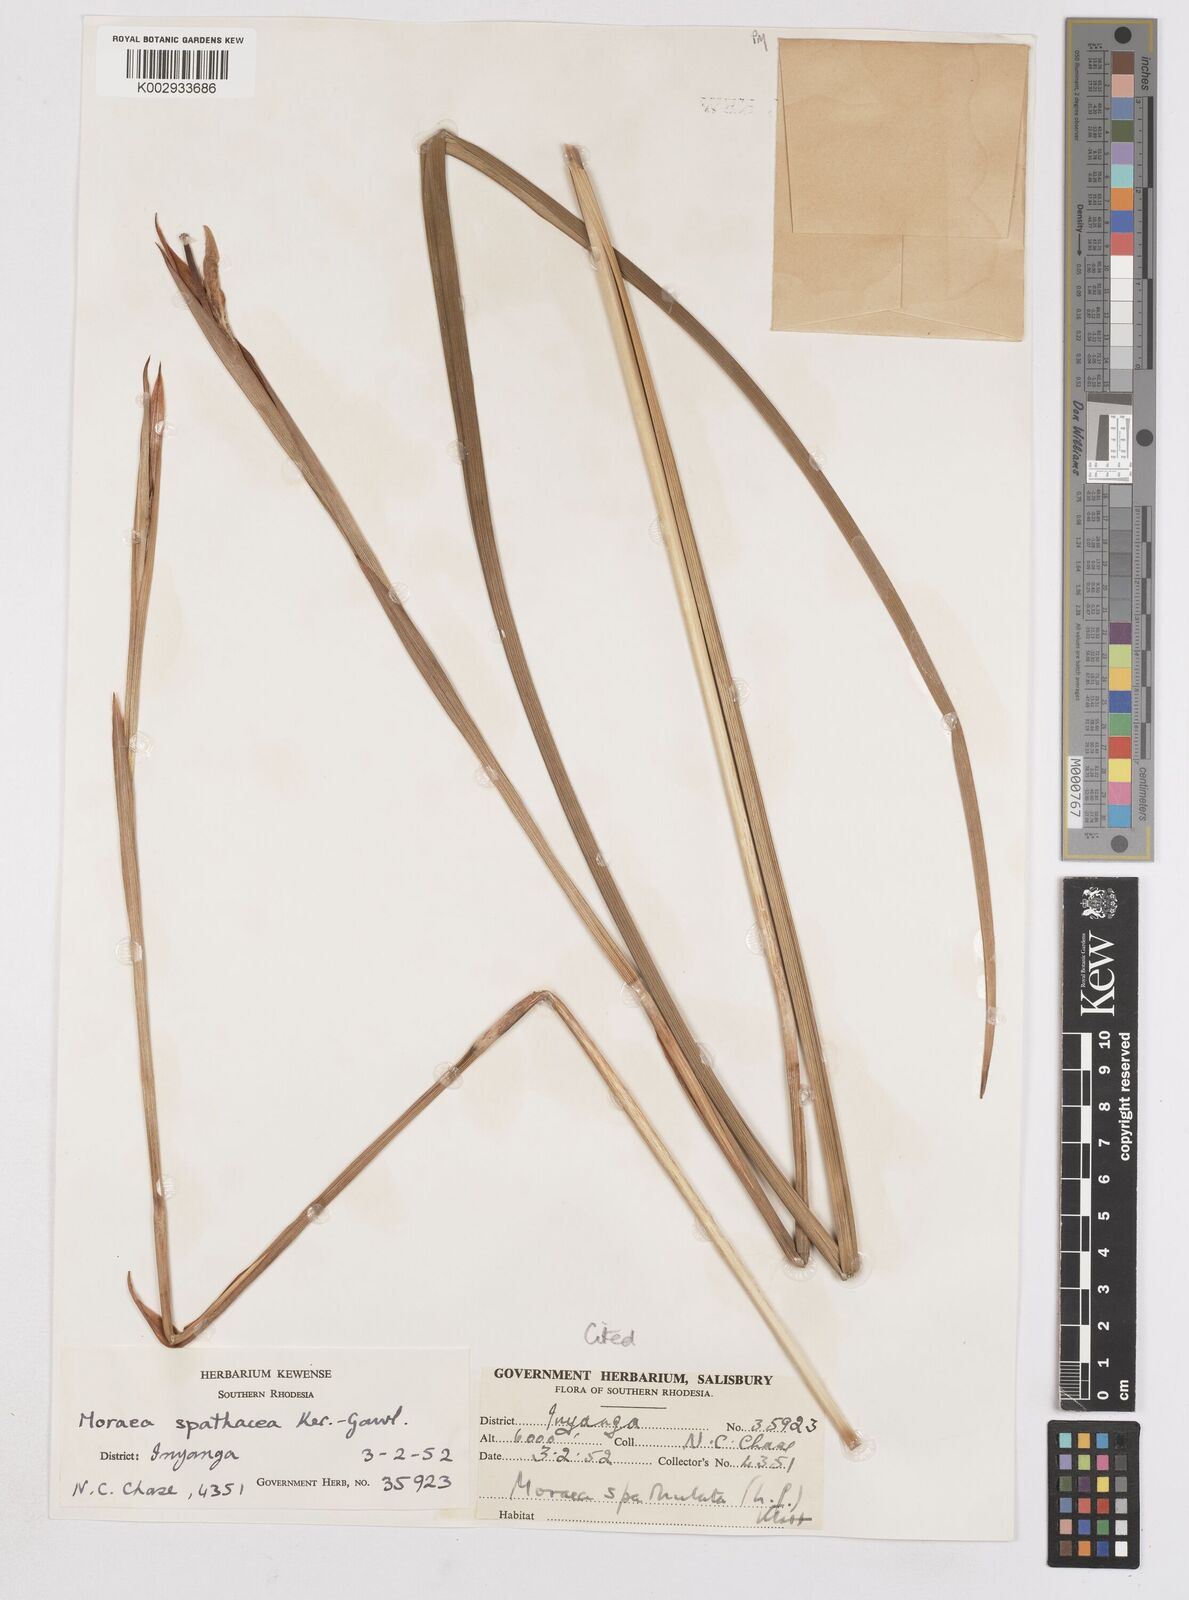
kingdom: Plantae
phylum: Tracheophyta
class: Liliopsida
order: Asparagales
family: Iridaceae
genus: Moraea
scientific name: Moraea spathulata
